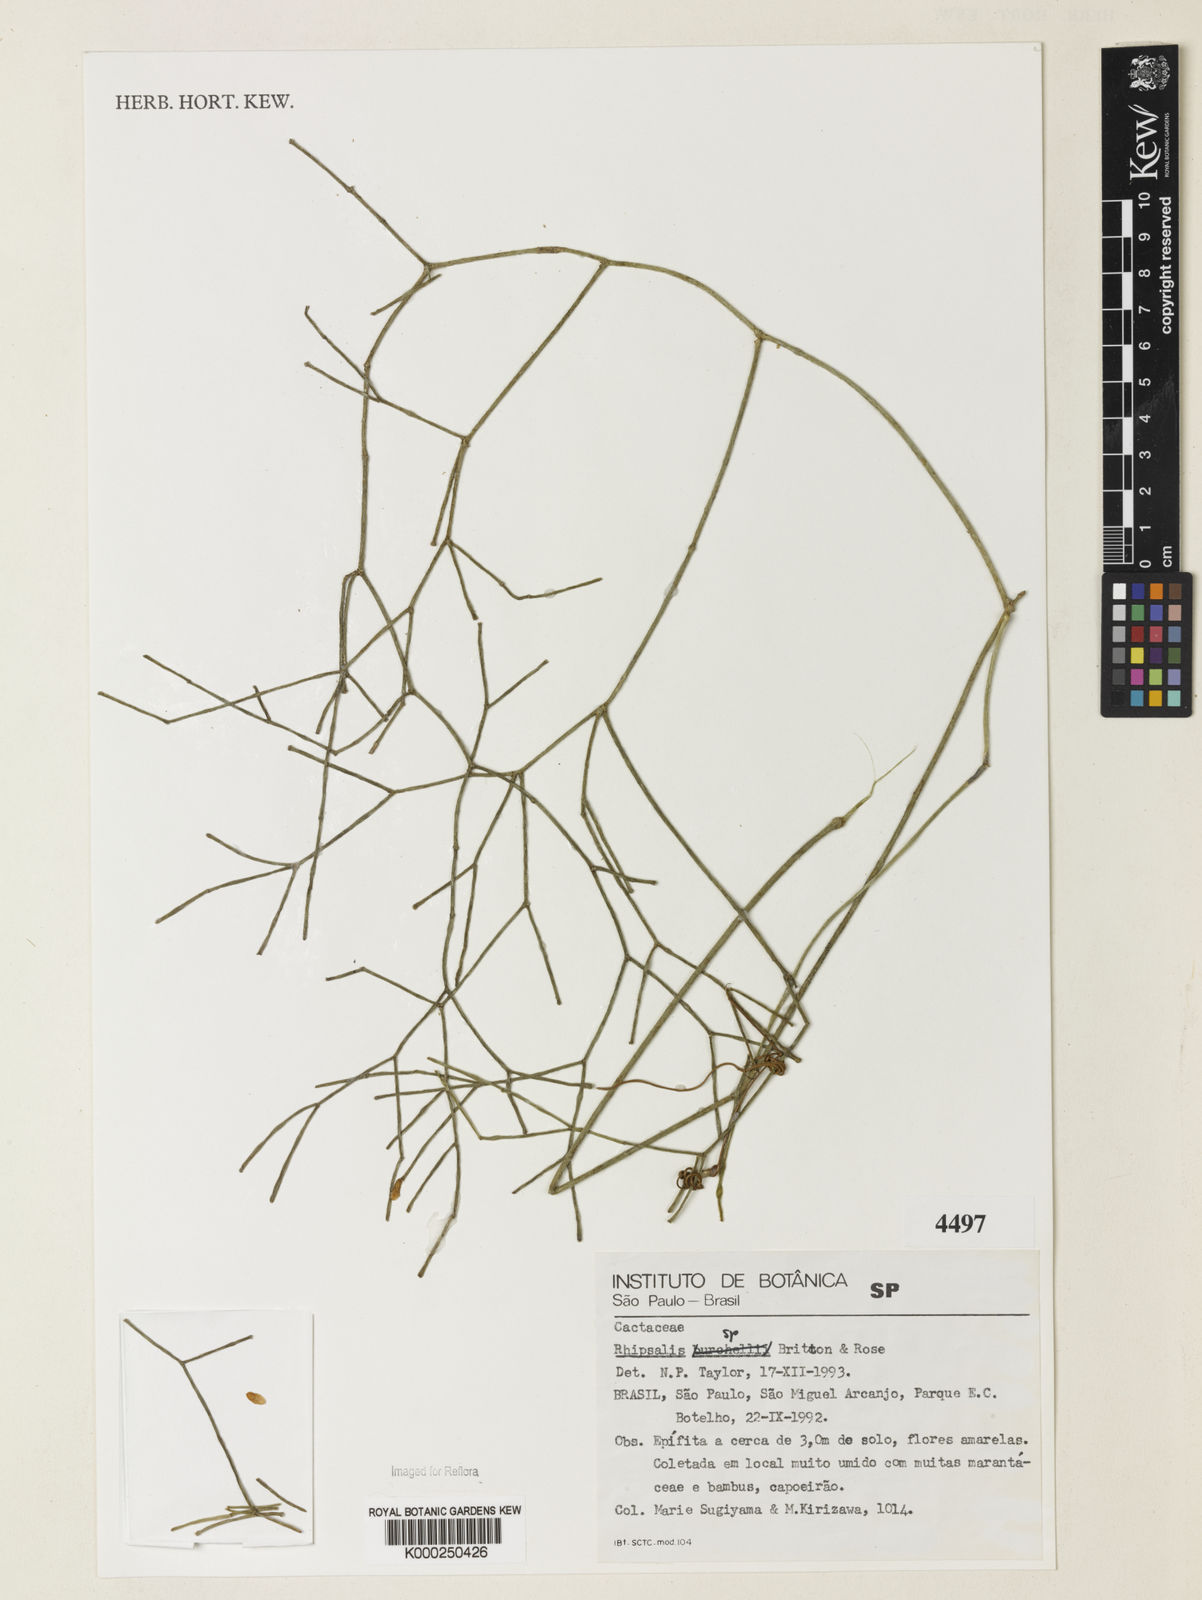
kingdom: Plantae
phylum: Tracheophyta
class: Magnoliopsida
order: Caryophyllales
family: Cactaceae
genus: Rhipsalis
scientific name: Rhipsalis burchellii
